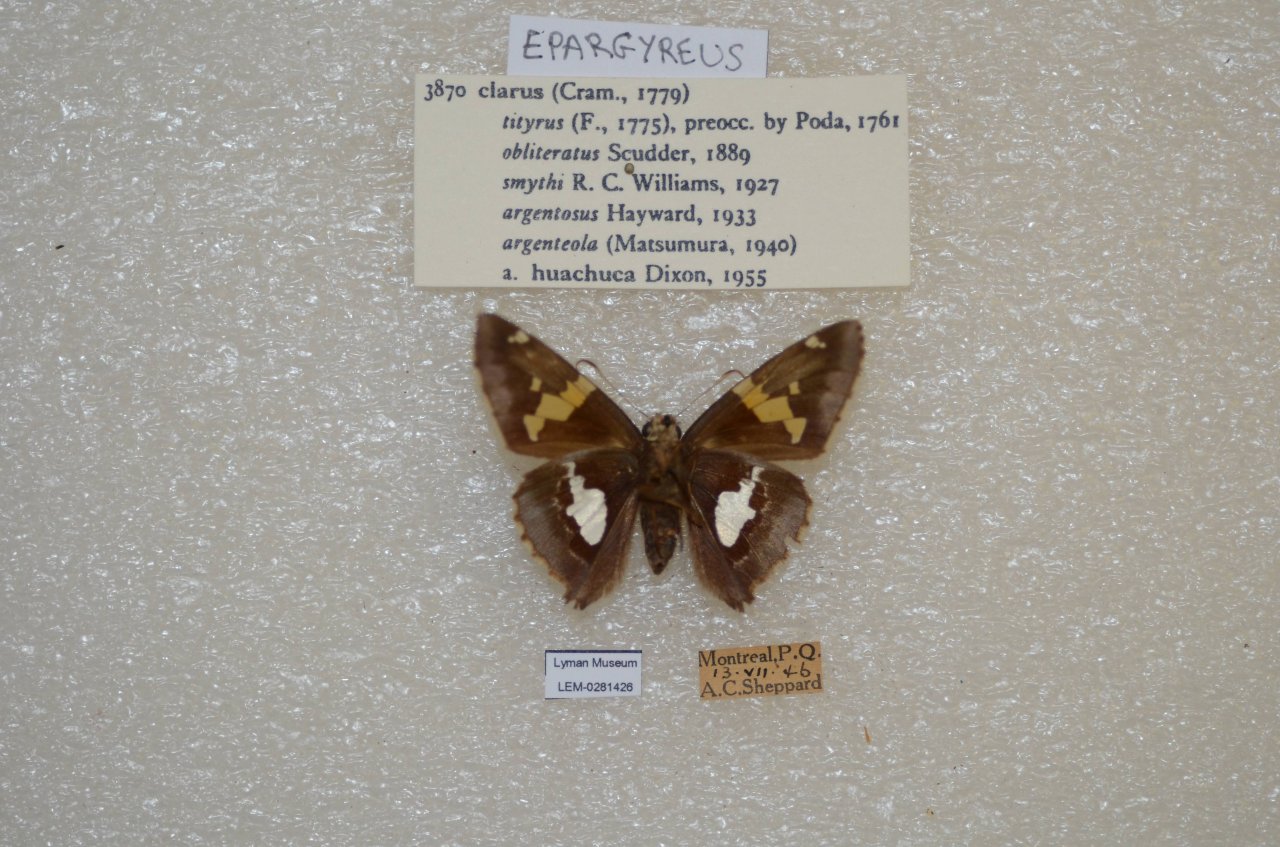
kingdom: Animalia
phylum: Arthropoda
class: Insecta
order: Lepidoptera
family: Hesperiidae
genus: Epargyreus
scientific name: Epargyreus clarus
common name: Silver-spotted Skipper
